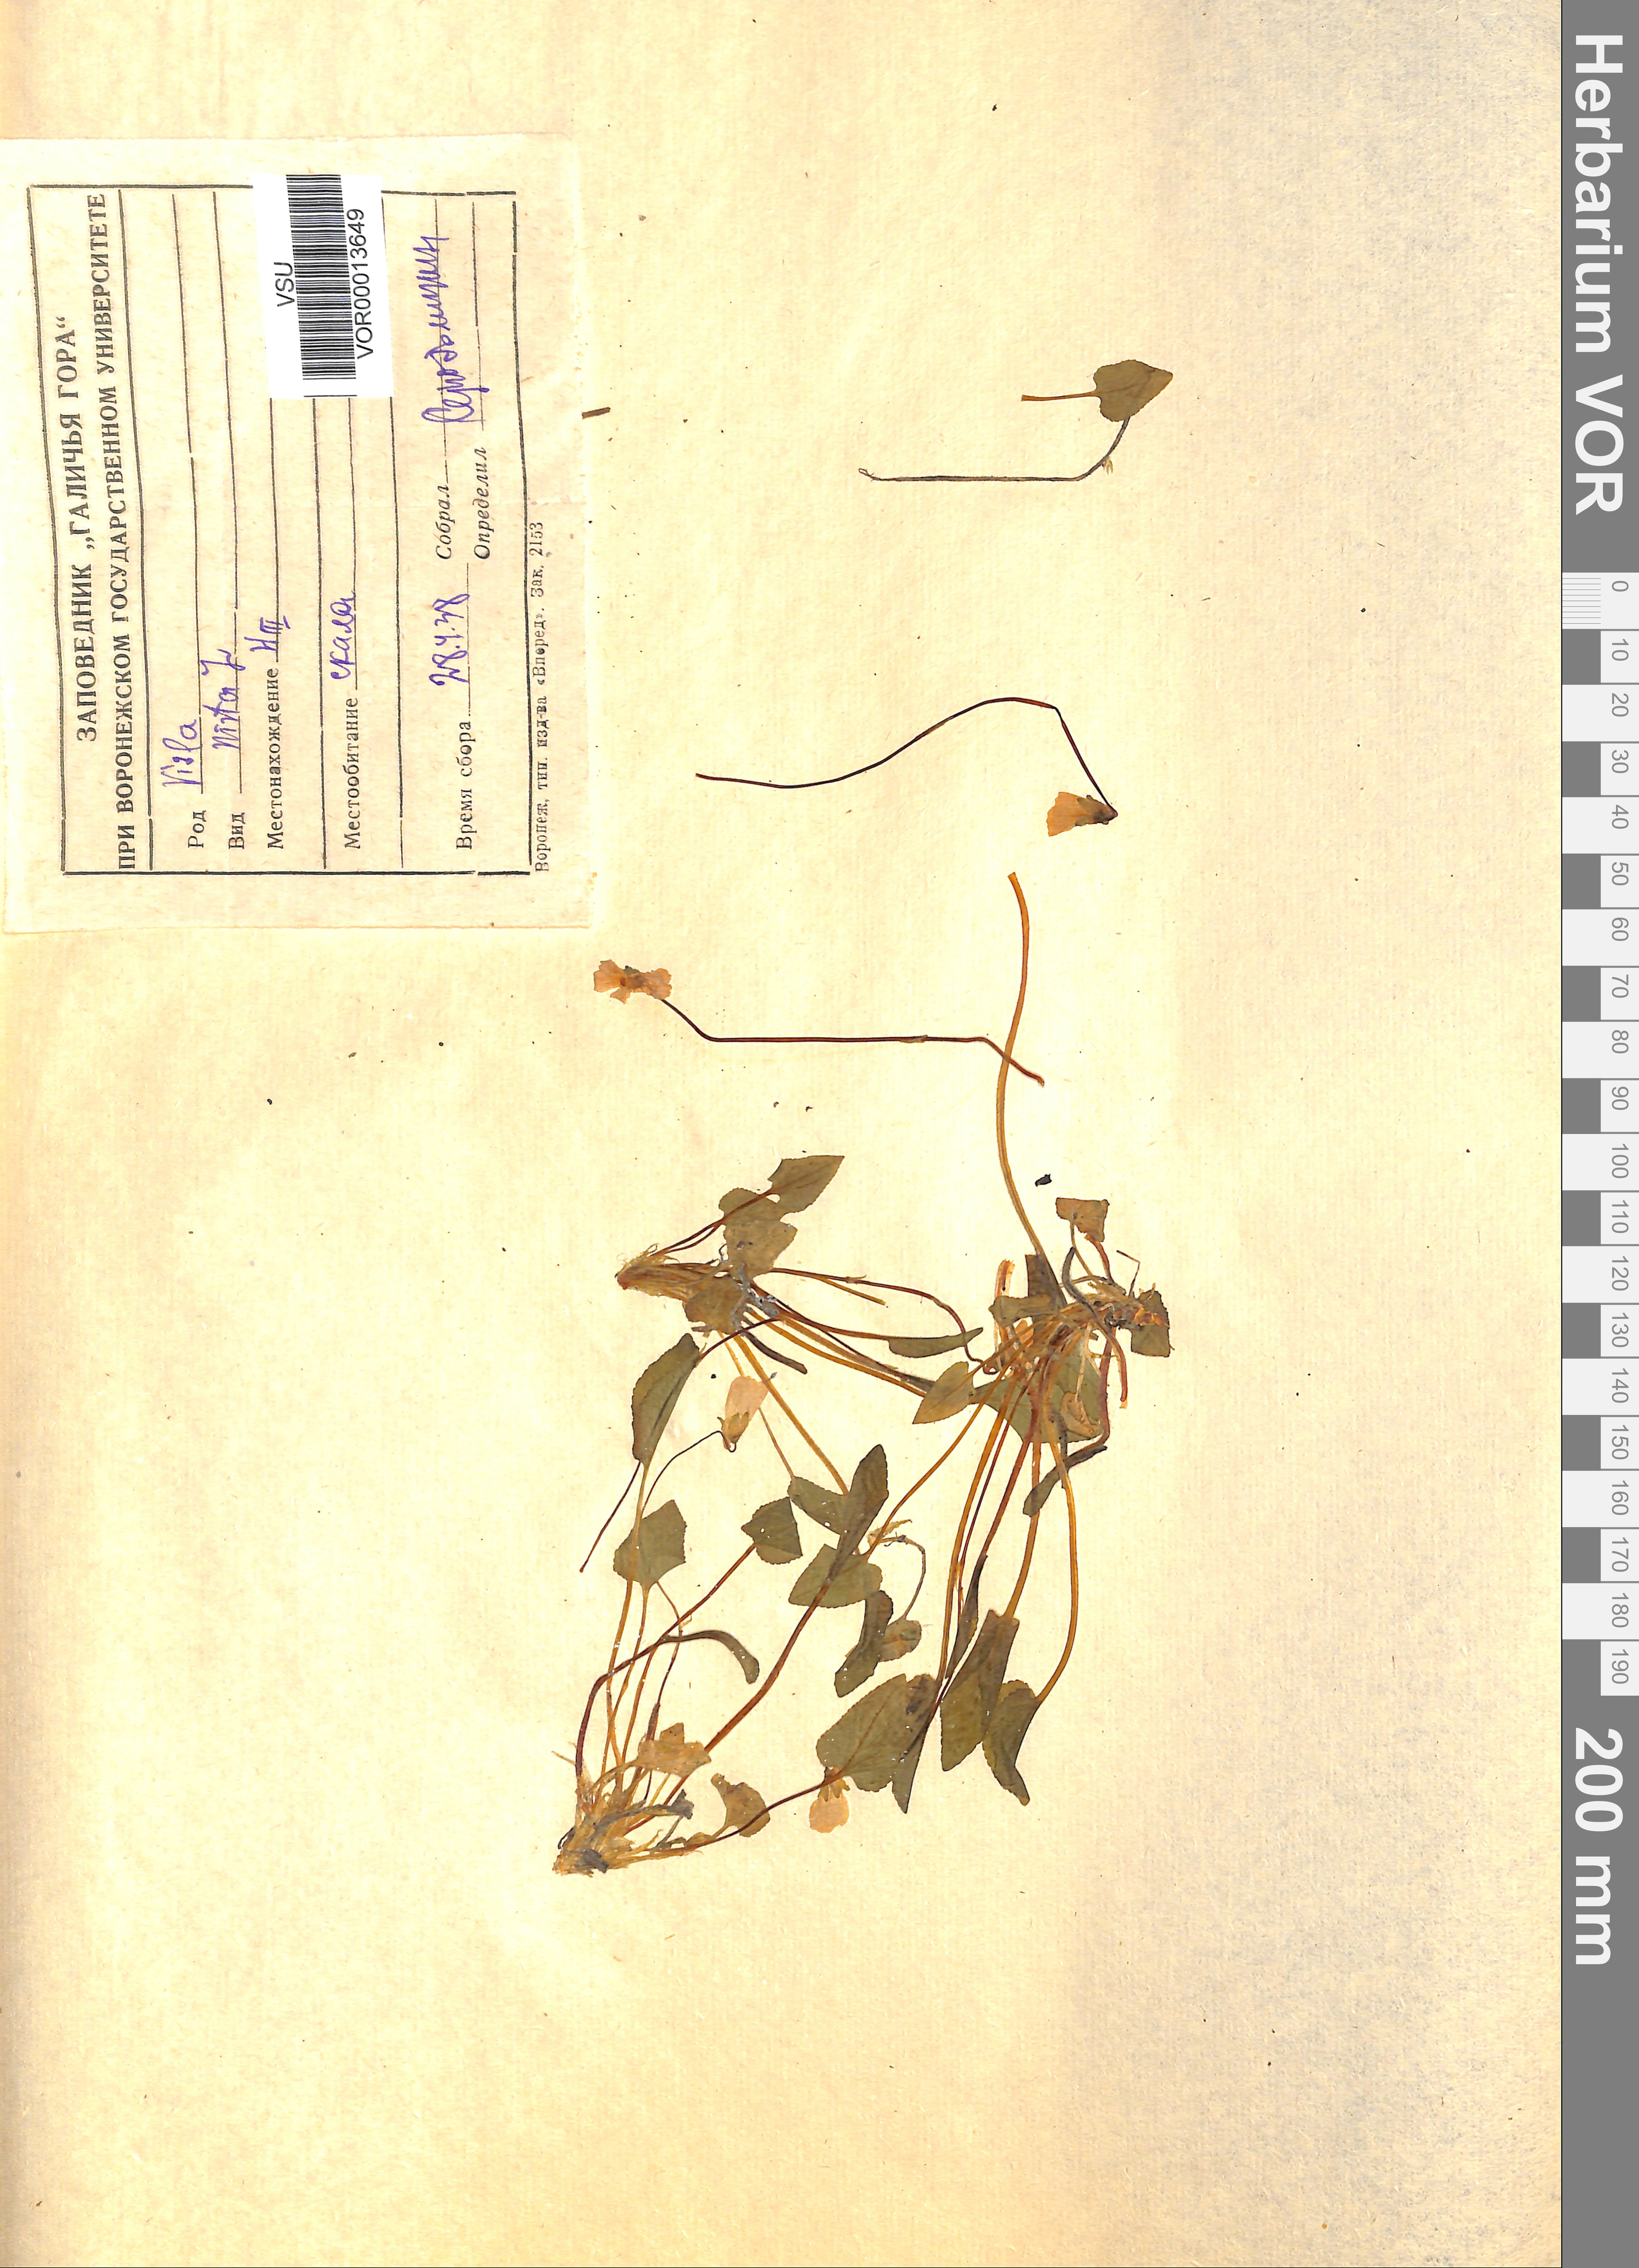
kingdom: Plantae
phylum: Tracheophyta
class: Magnoliopsida
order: Malpighiales
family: Violaceae
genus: Viola
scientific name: Viola hirta
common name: Hairy violet
